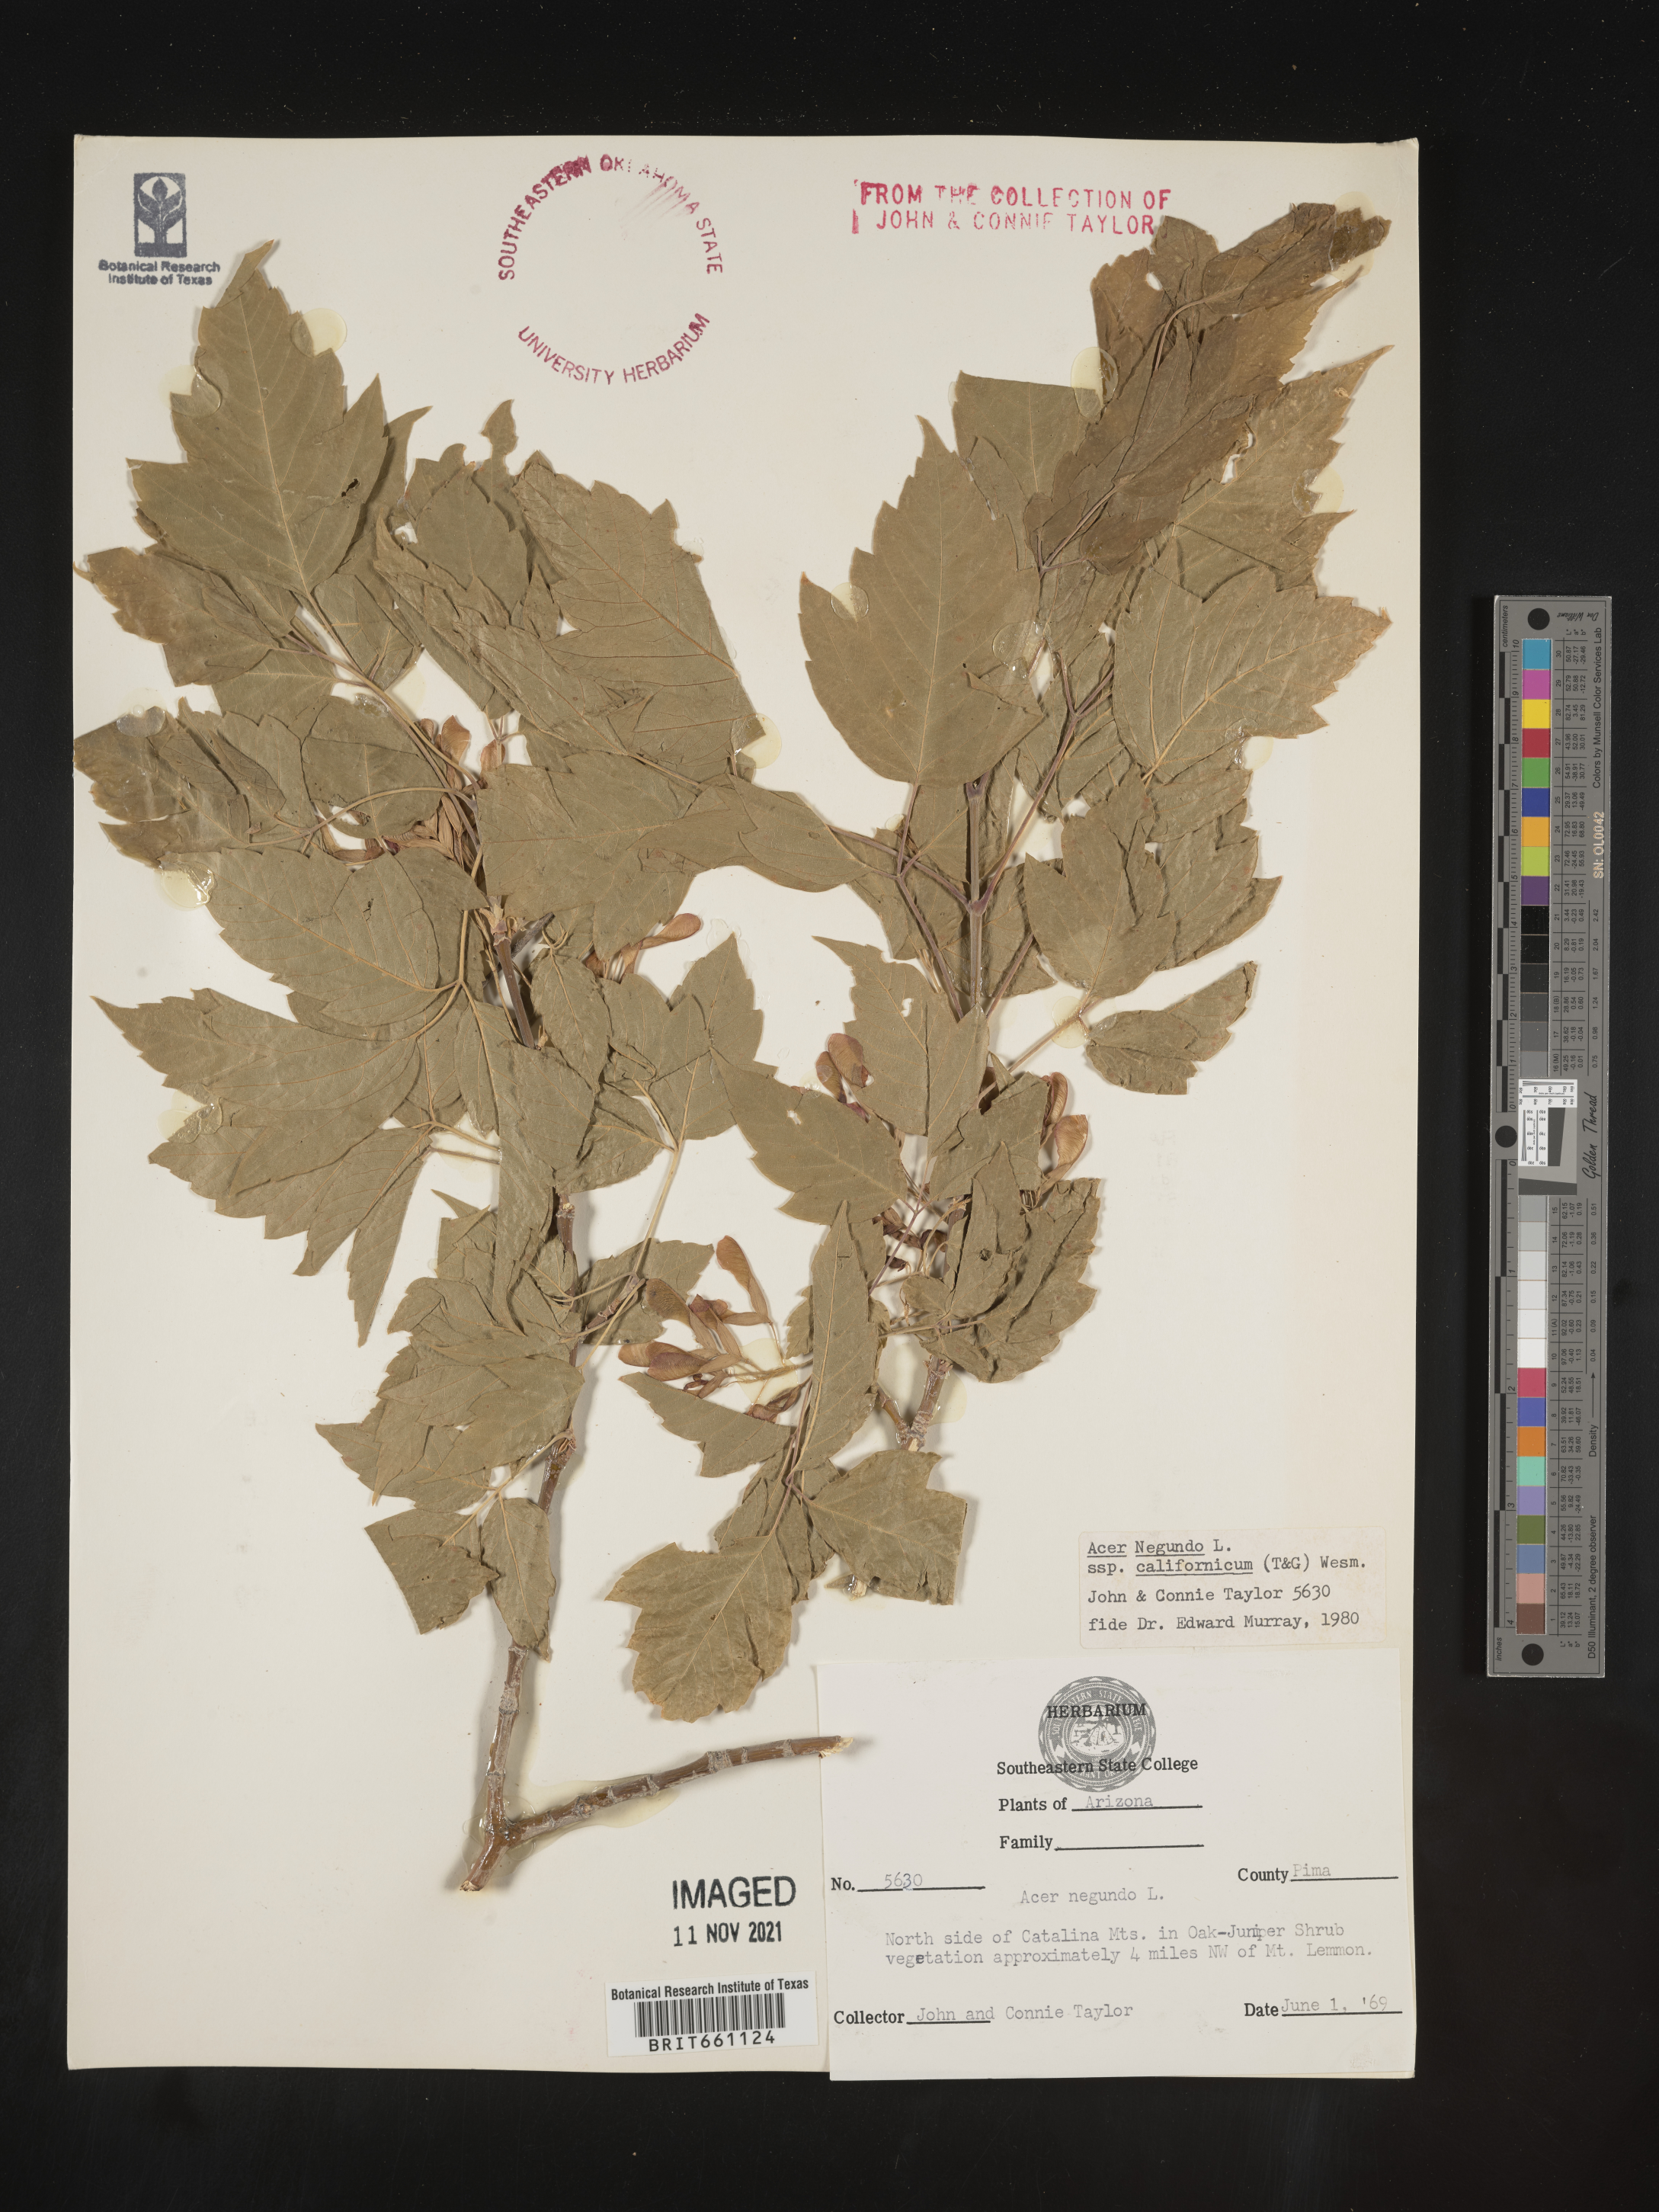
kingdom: Plantae
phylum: Tracheophyta
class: Magnoliopsida
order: Sapindales
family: Sapindaceae
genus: Acer
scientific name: Acer negundo
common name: Ashleaf maple
